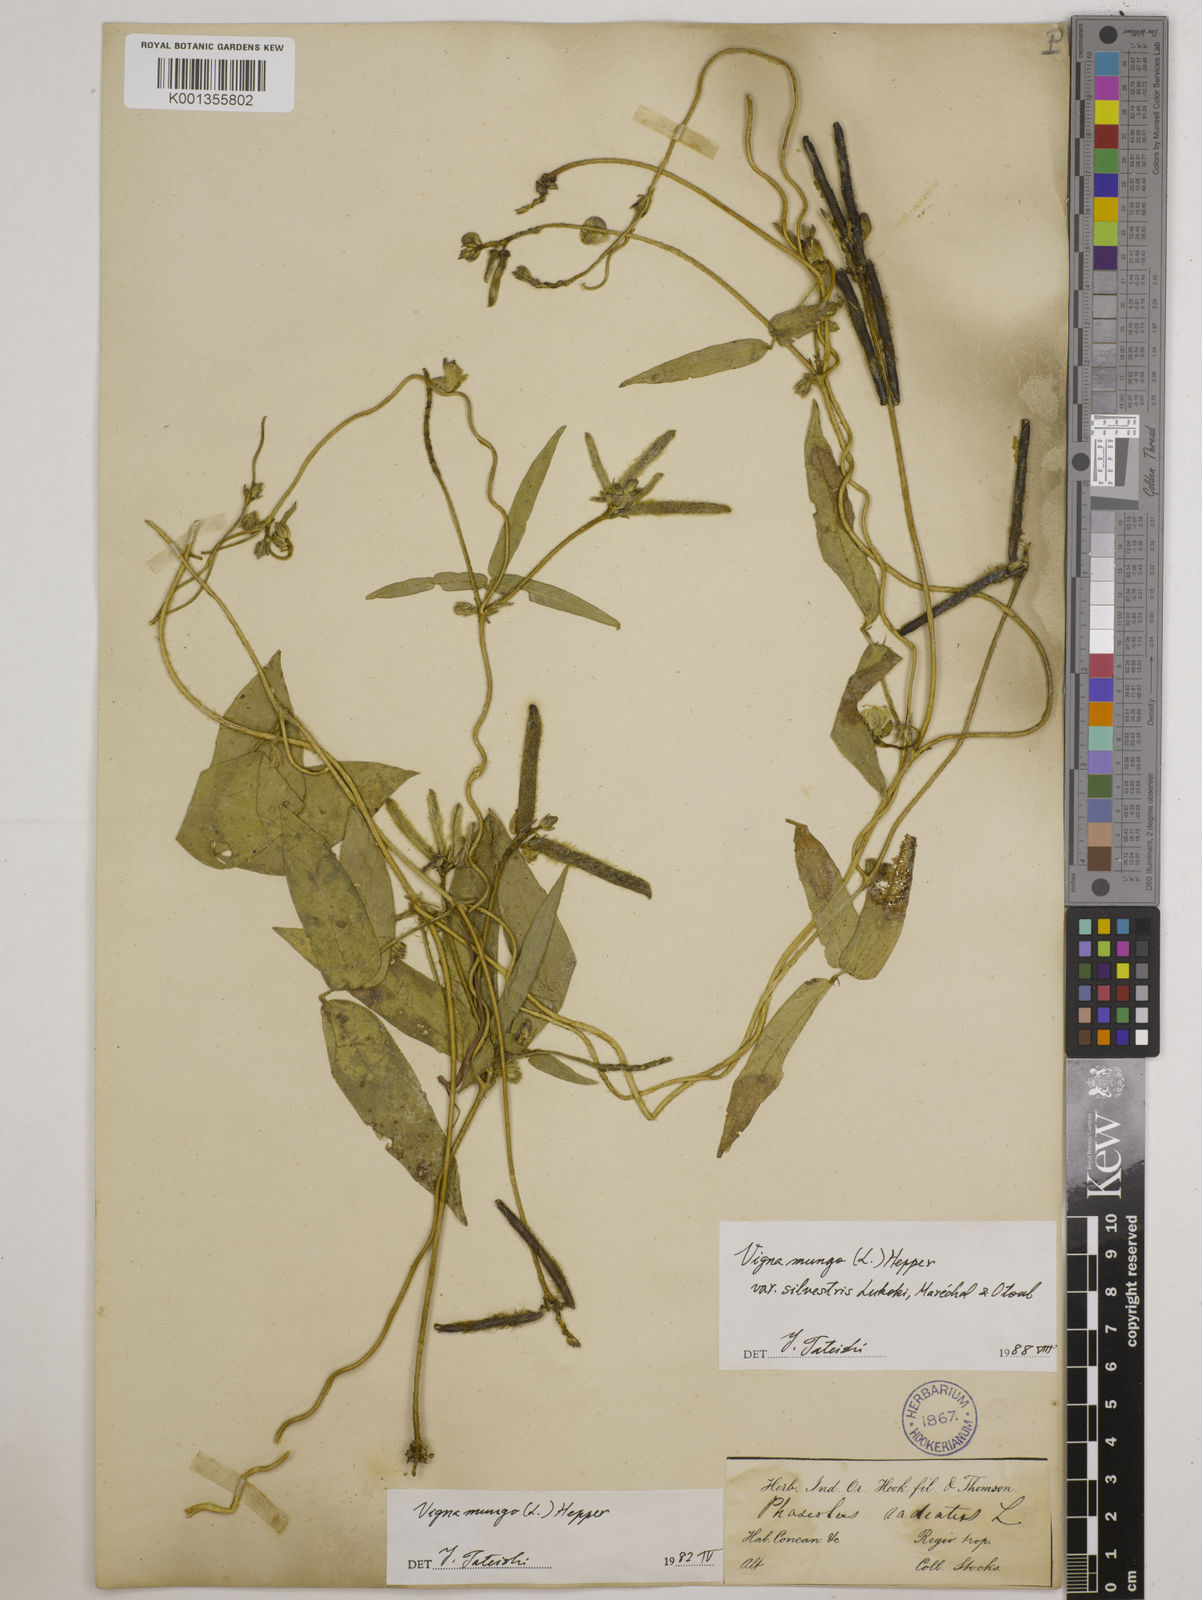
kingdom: Plantae
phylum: Tracheophyta
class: Magnoliopsida
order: Fabales
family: Fabaceae
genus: Vigna
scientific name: Vigna mungo
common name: Black gram
